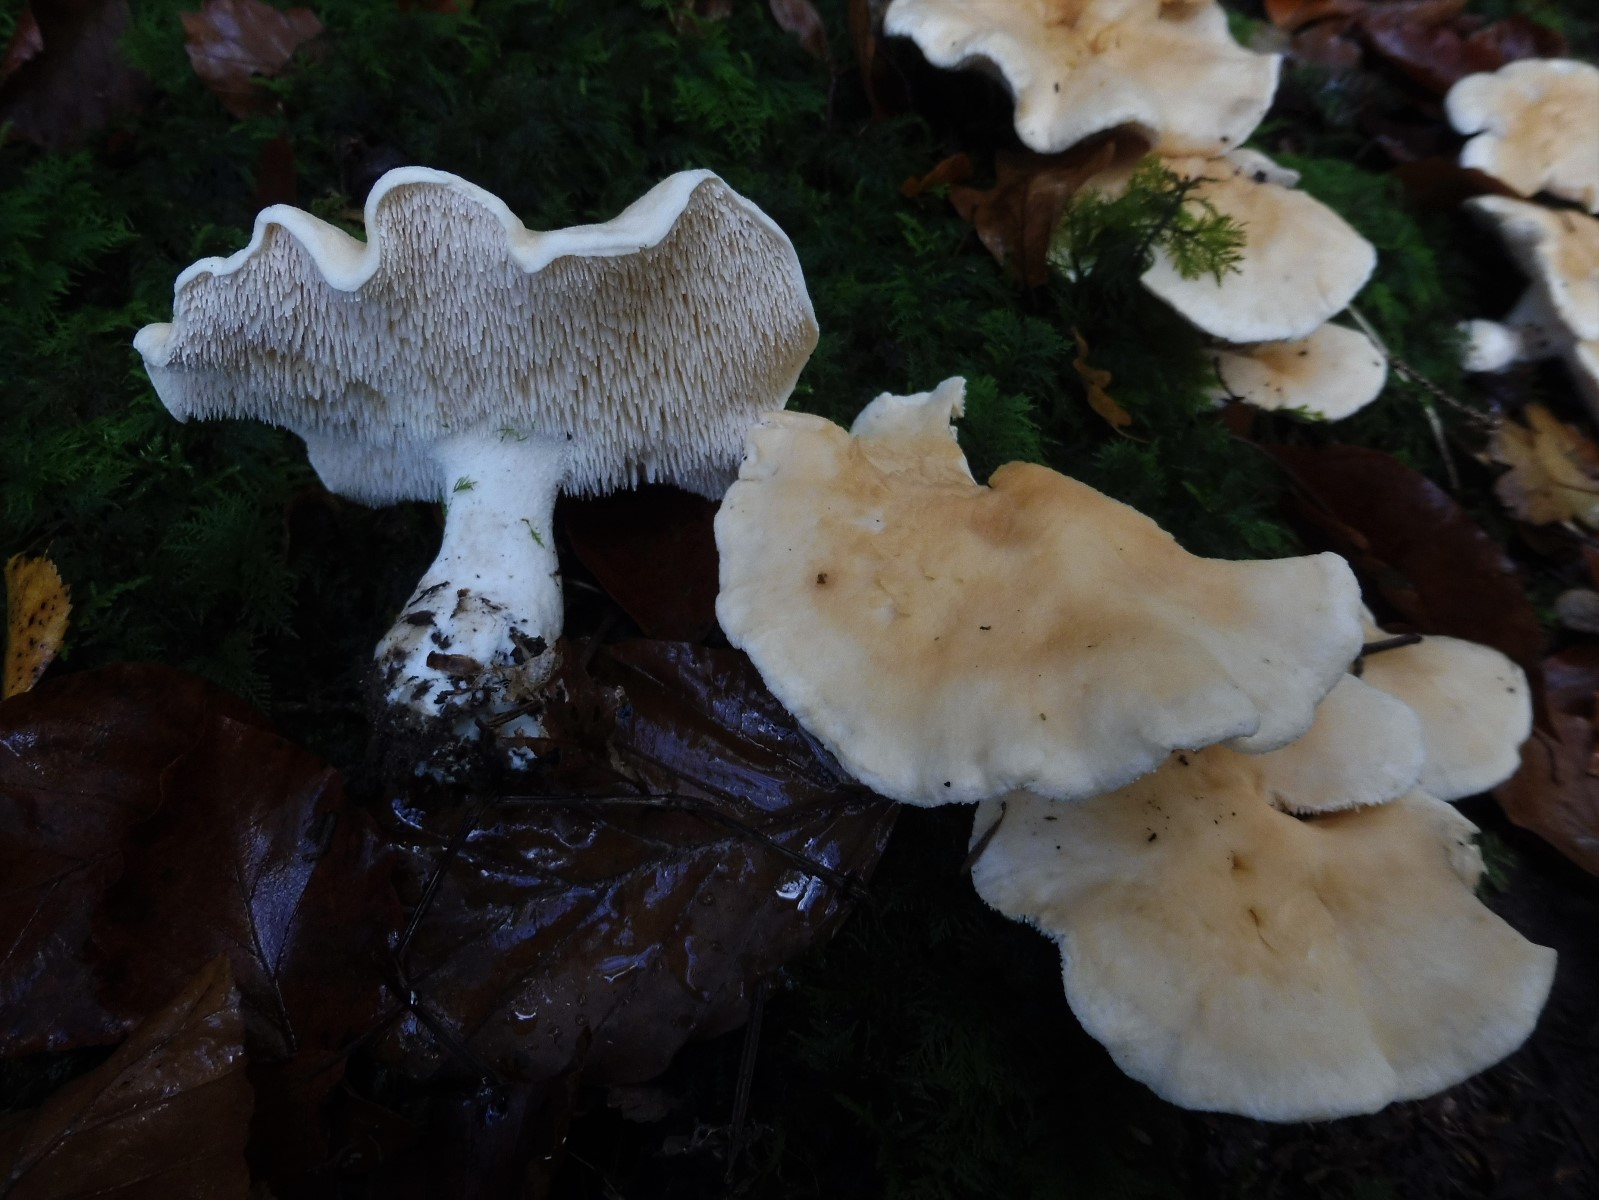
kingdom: Fungi
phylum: Basidiomycota
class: Agaricomycetes
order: Cantharellales
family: Hydnaceae
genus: Hydnum
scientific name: Hydnum repandum
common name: almindelig pigsvamp
